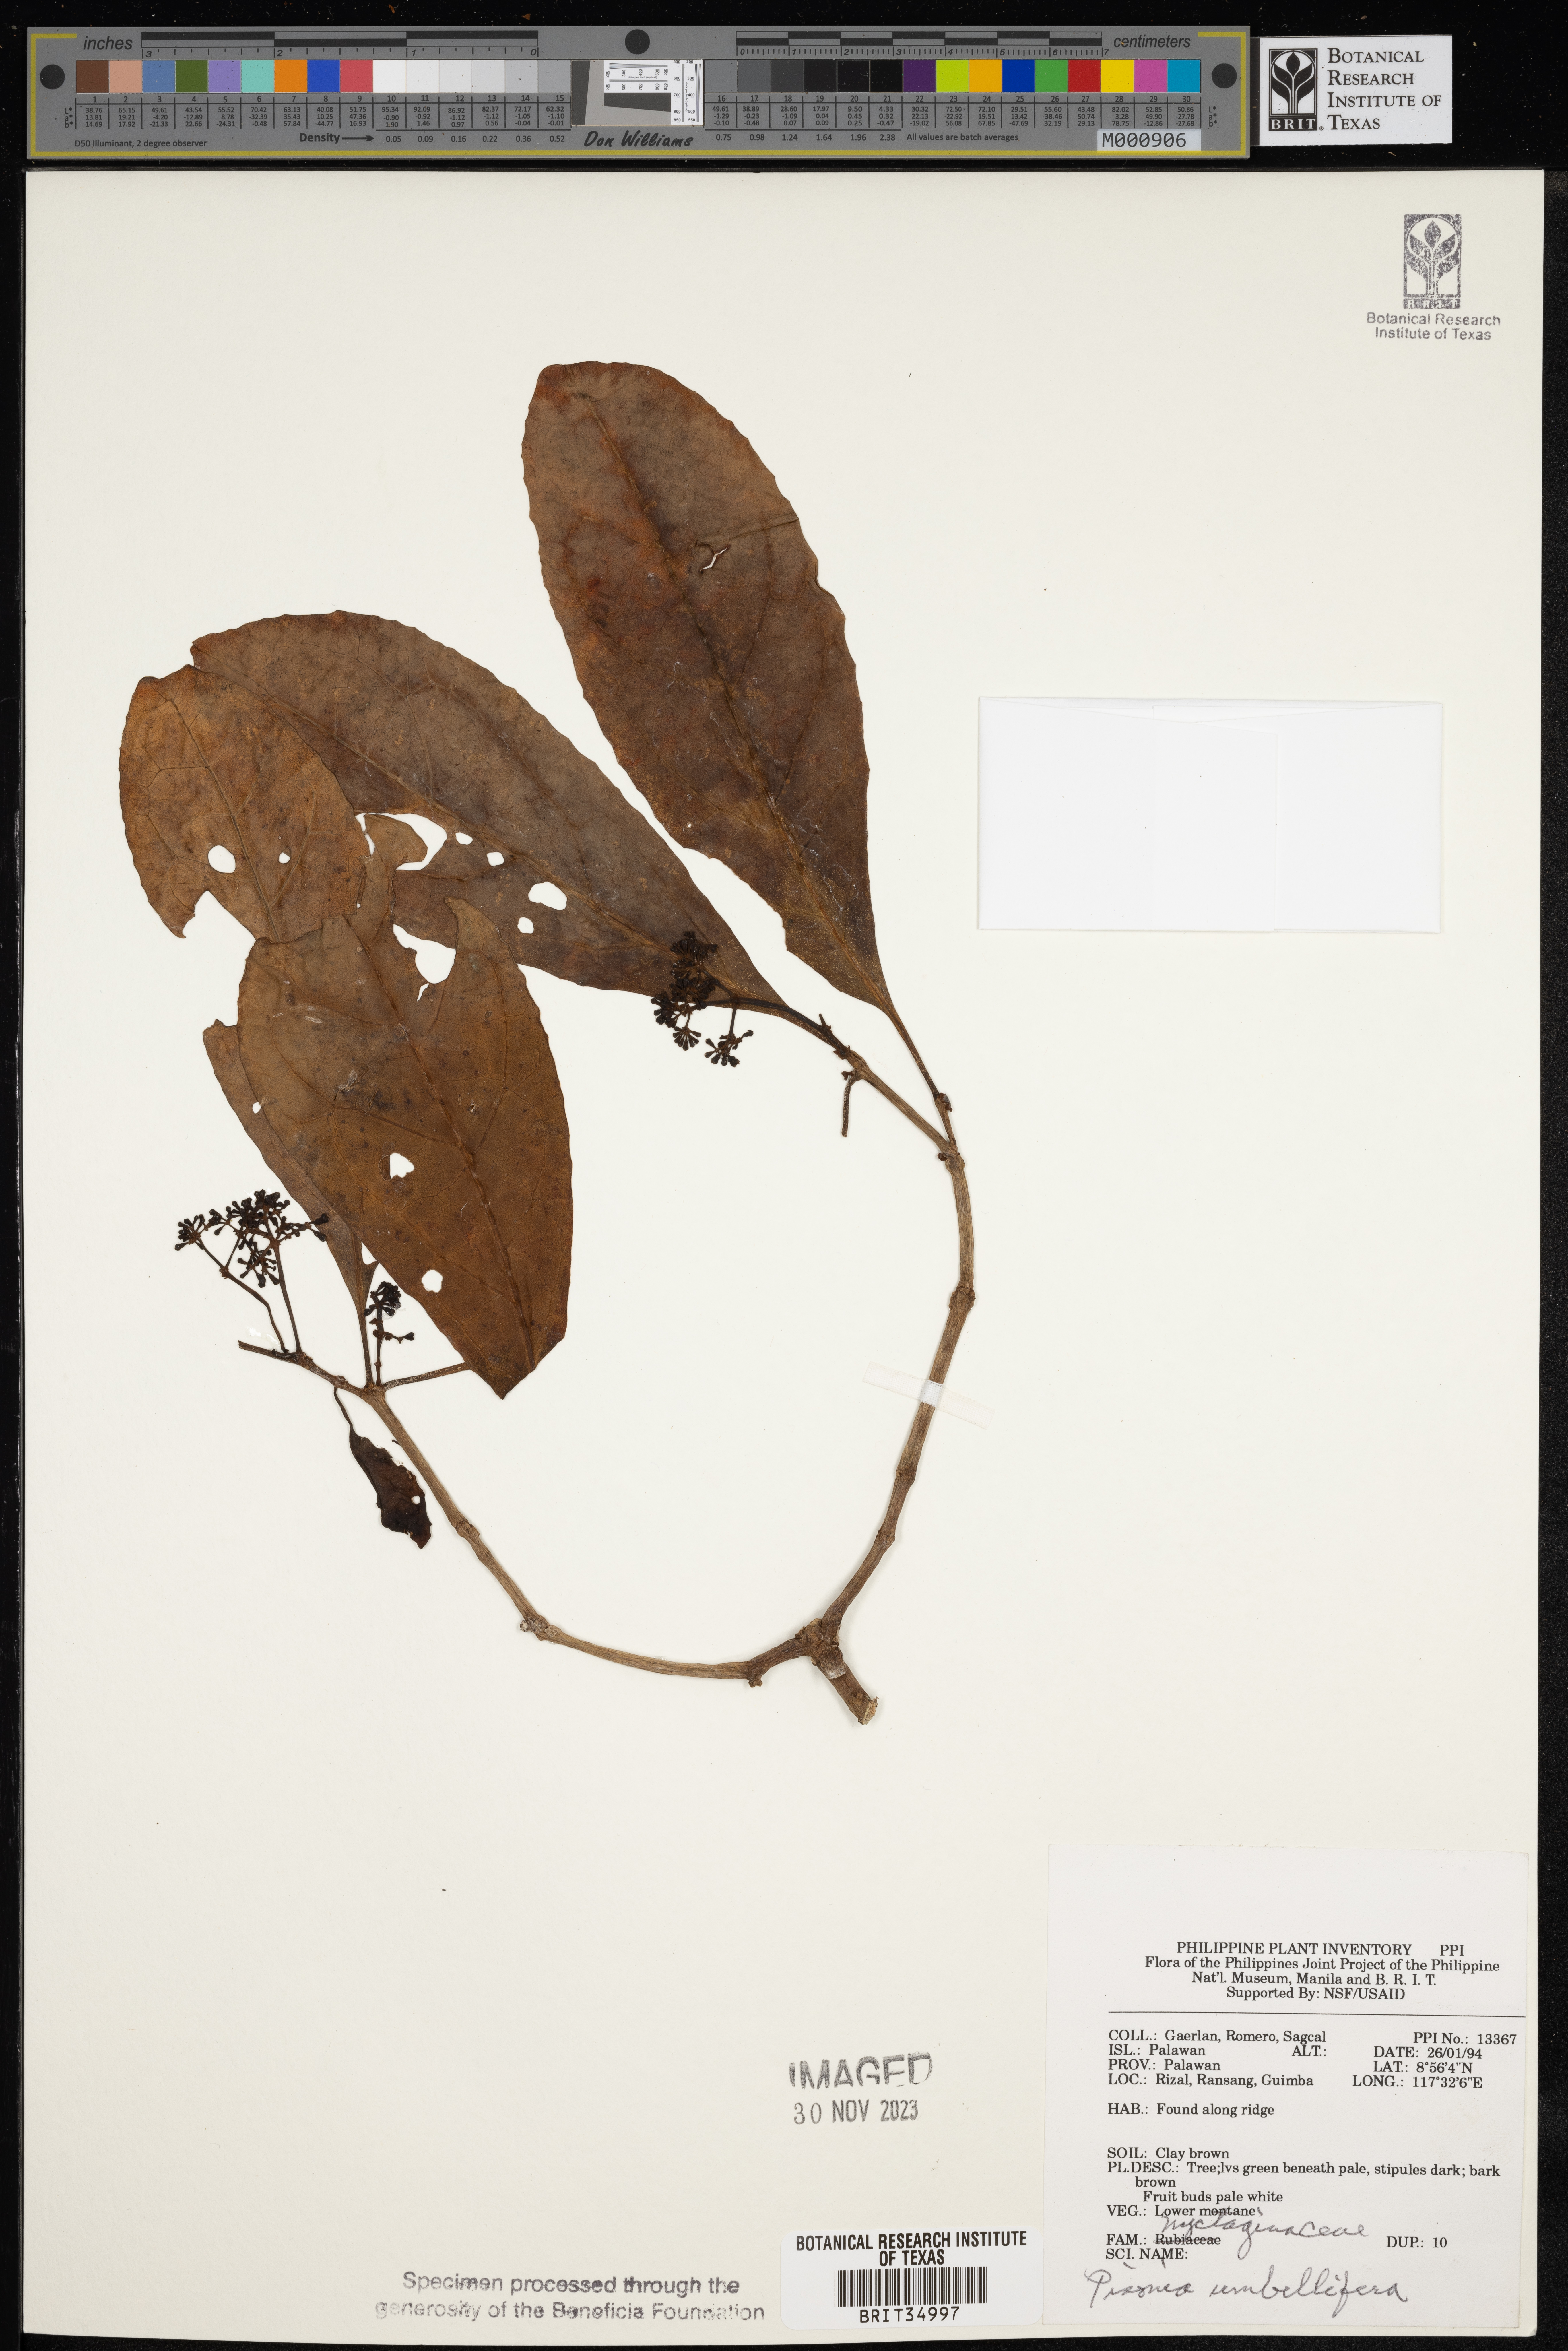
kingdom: Plantae
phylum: Tracheophyta
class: Magnoliopsida
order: Caryophyllales
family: Nyctaginaceae
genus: Ceodes
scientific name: Ceodes umbellifera
